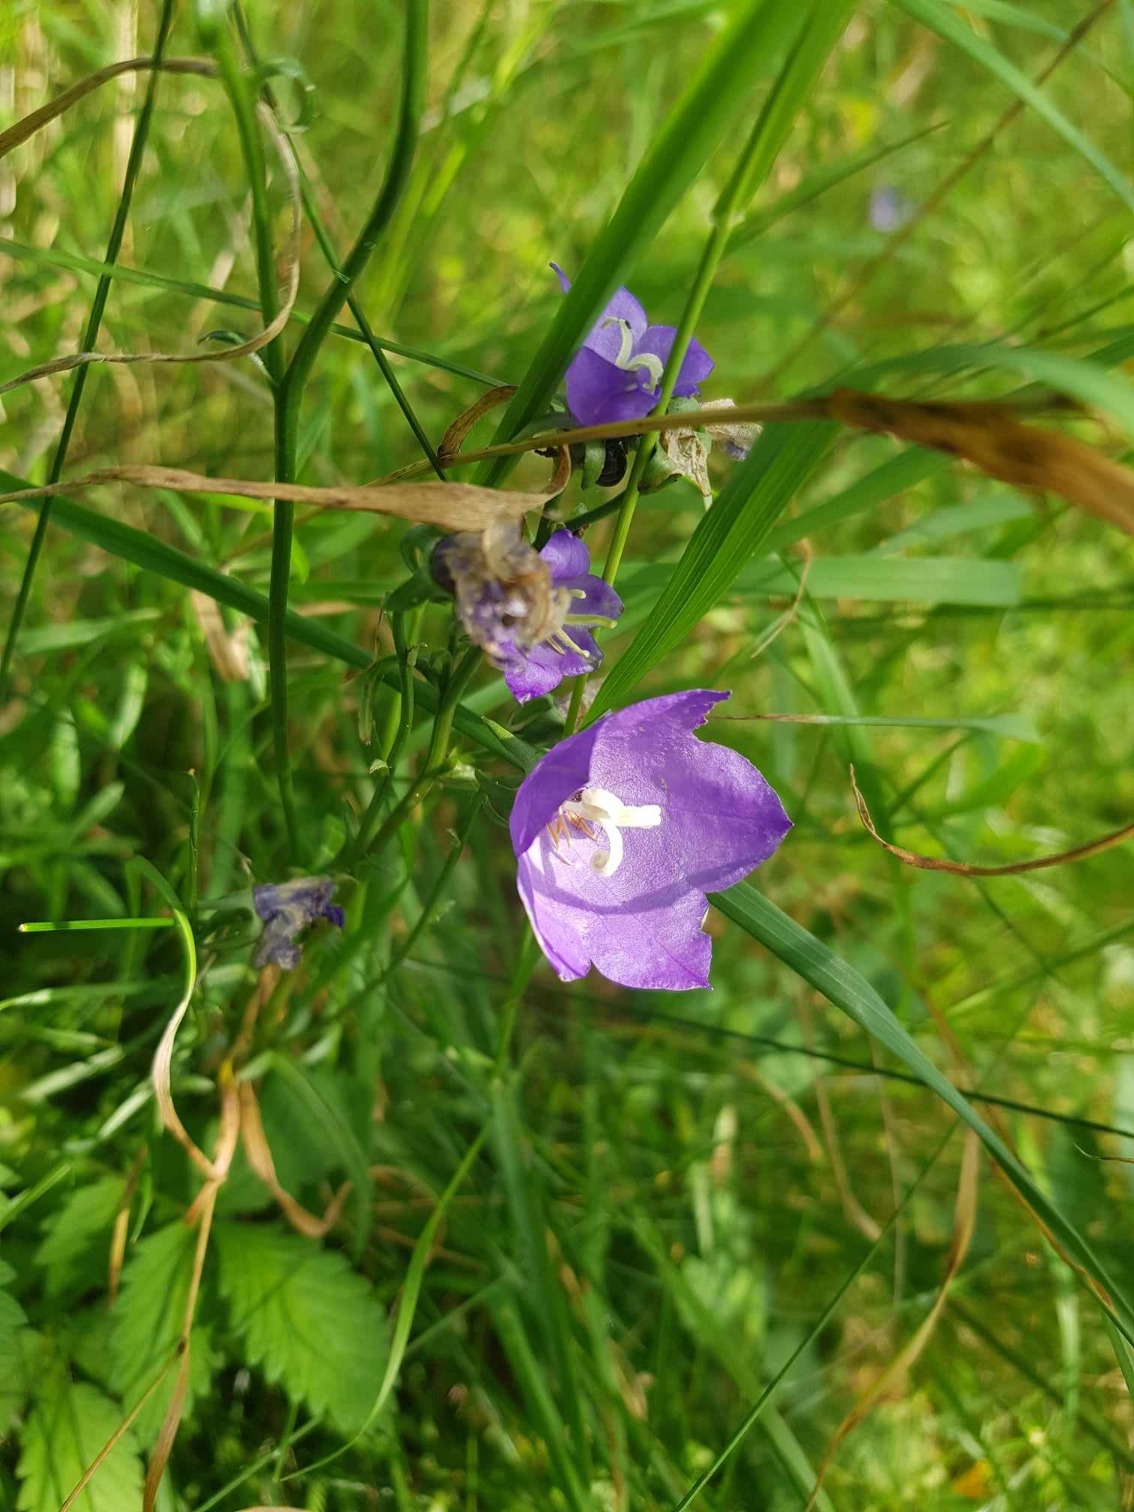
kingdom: Plantae
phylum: Tracheophyta
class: Magnoliopsida
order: Asterales
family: Campanulaceae
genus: Campanula
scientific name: Campanula persicifolia
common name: Smalbladet klokke
